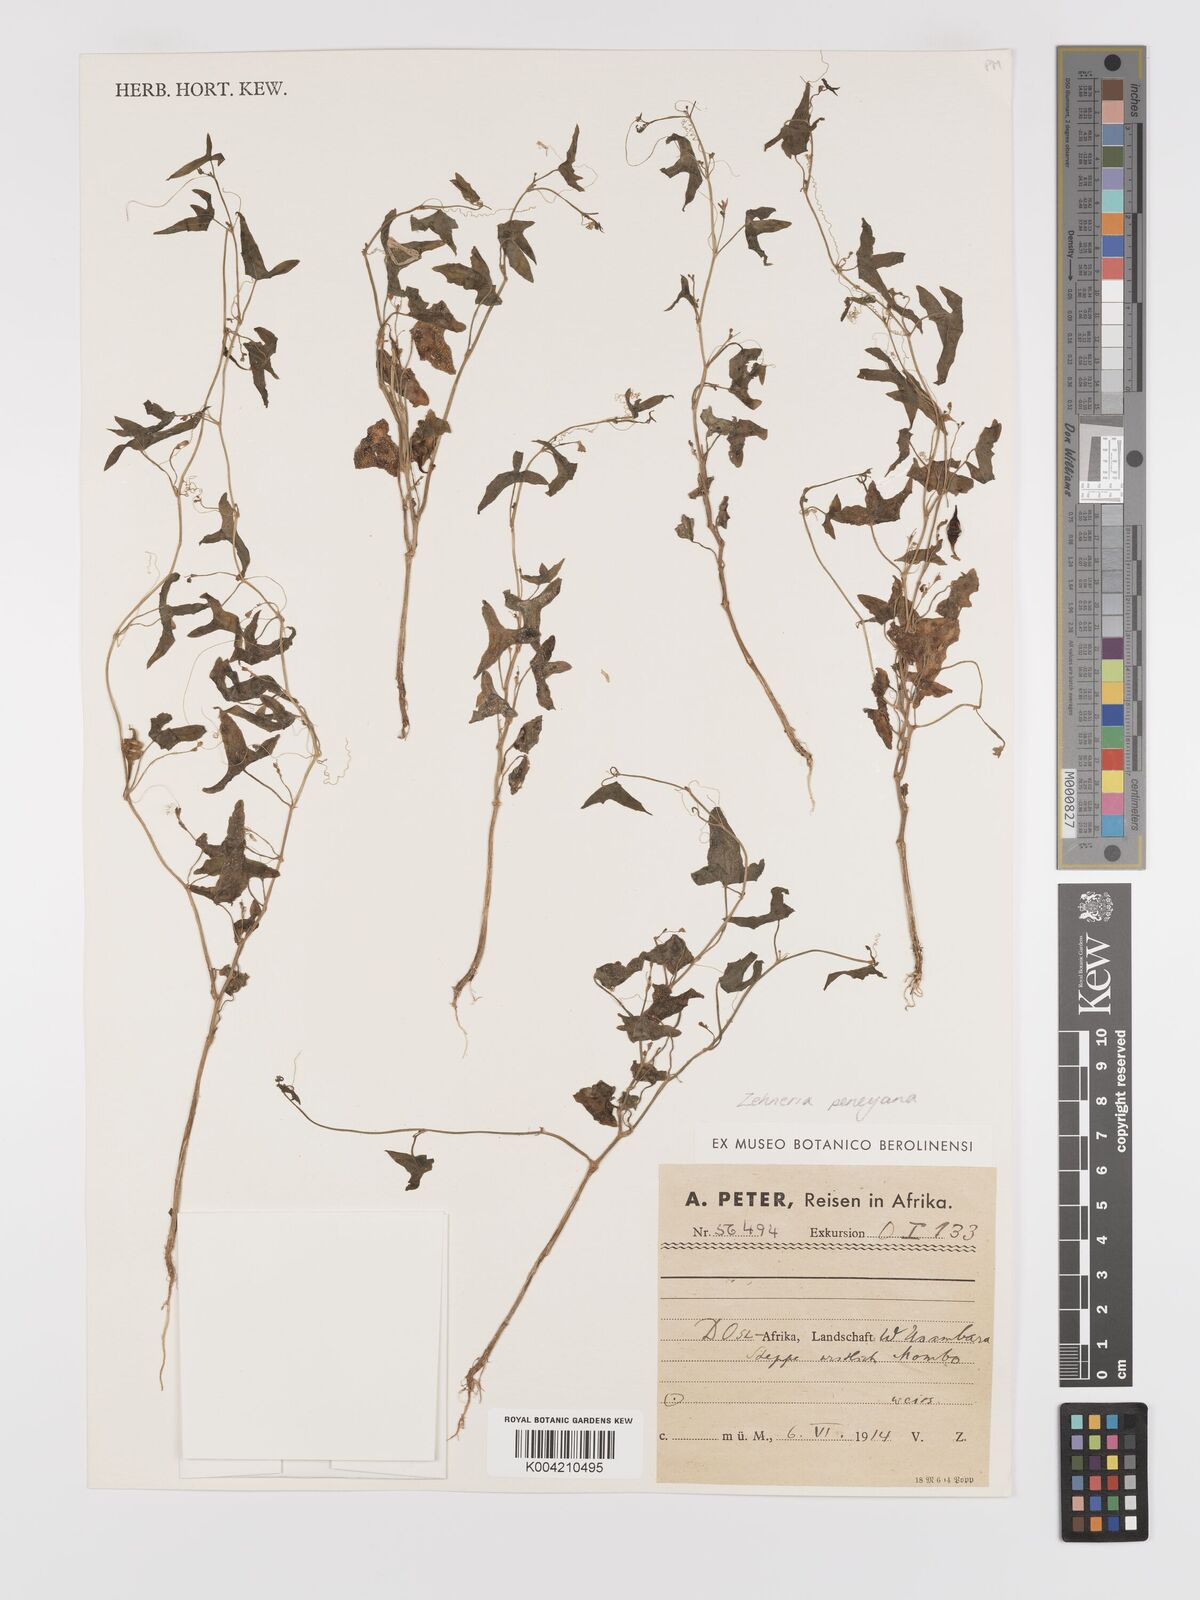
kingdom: Plantae
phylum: Tracheophyta
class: Magnoliopsida
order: Cucurbitales
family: Cucurbitaceae
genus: Zehneria
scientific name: Zehneria peneyana
